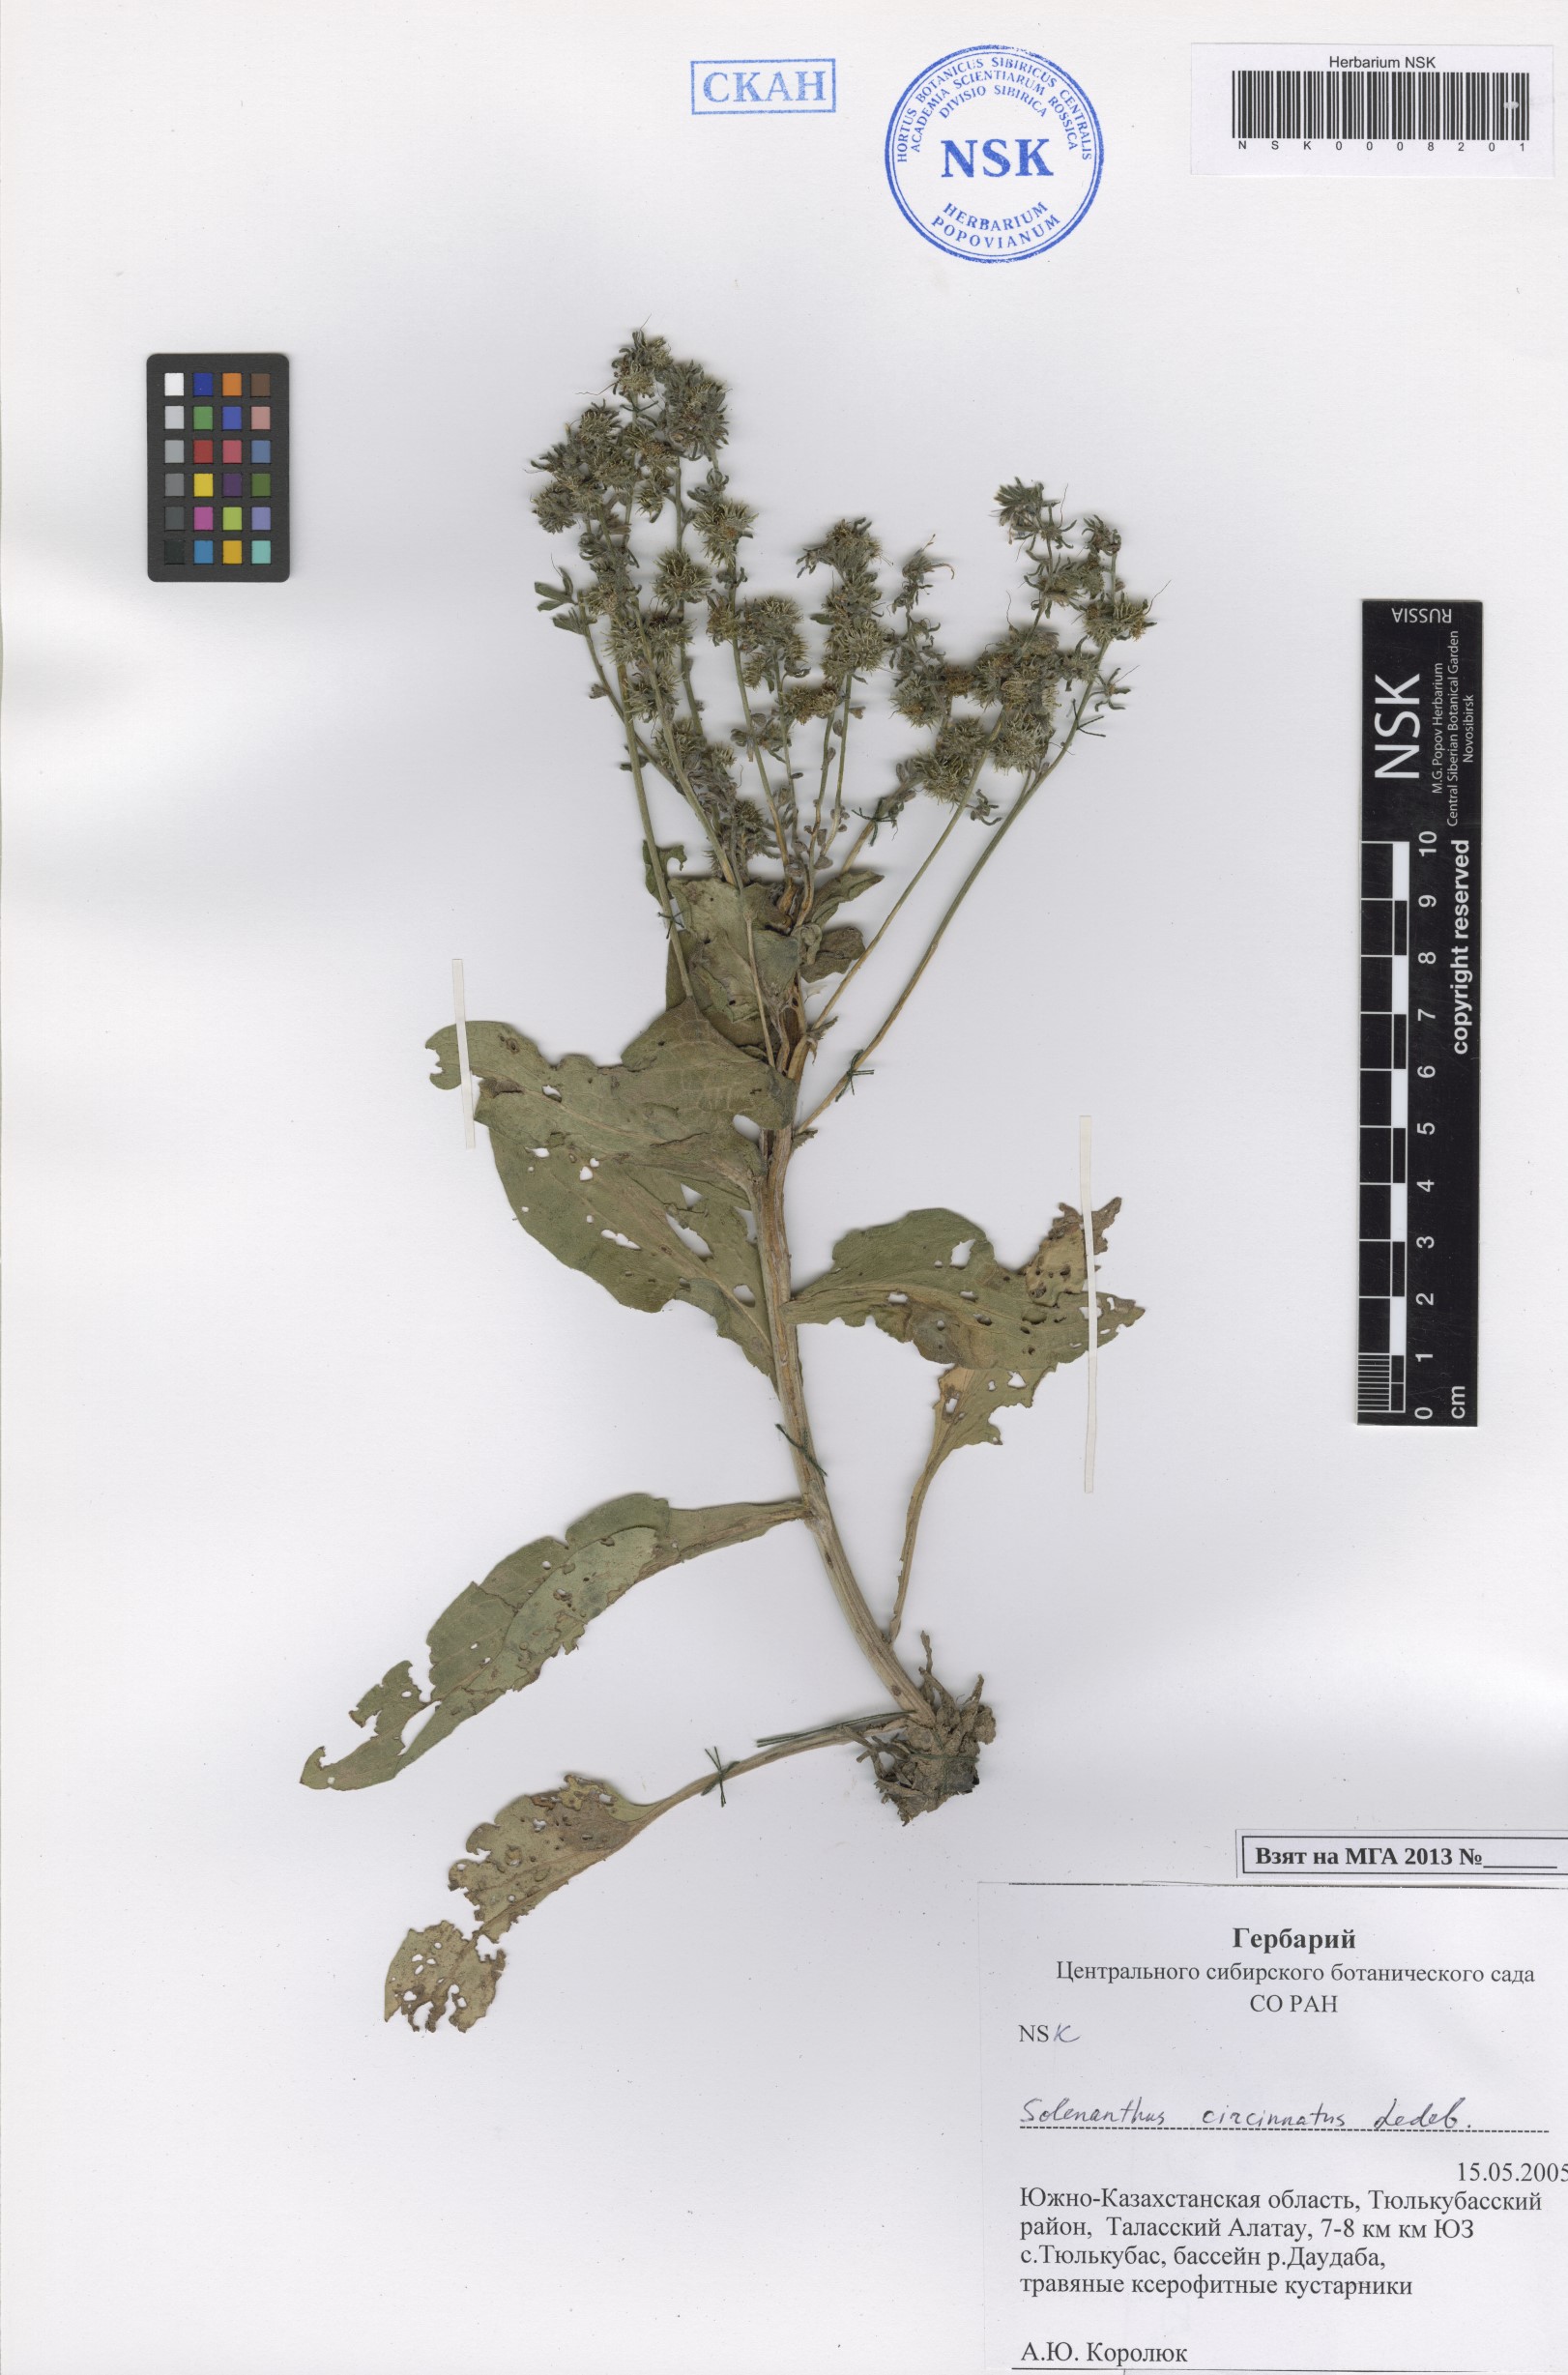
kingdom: Plantae
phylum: Tracheophyta
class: Magnoliopsida
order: Boraginales
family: Boraginaceae
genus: Solenanthus
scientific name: Solenanthus circinnatus
